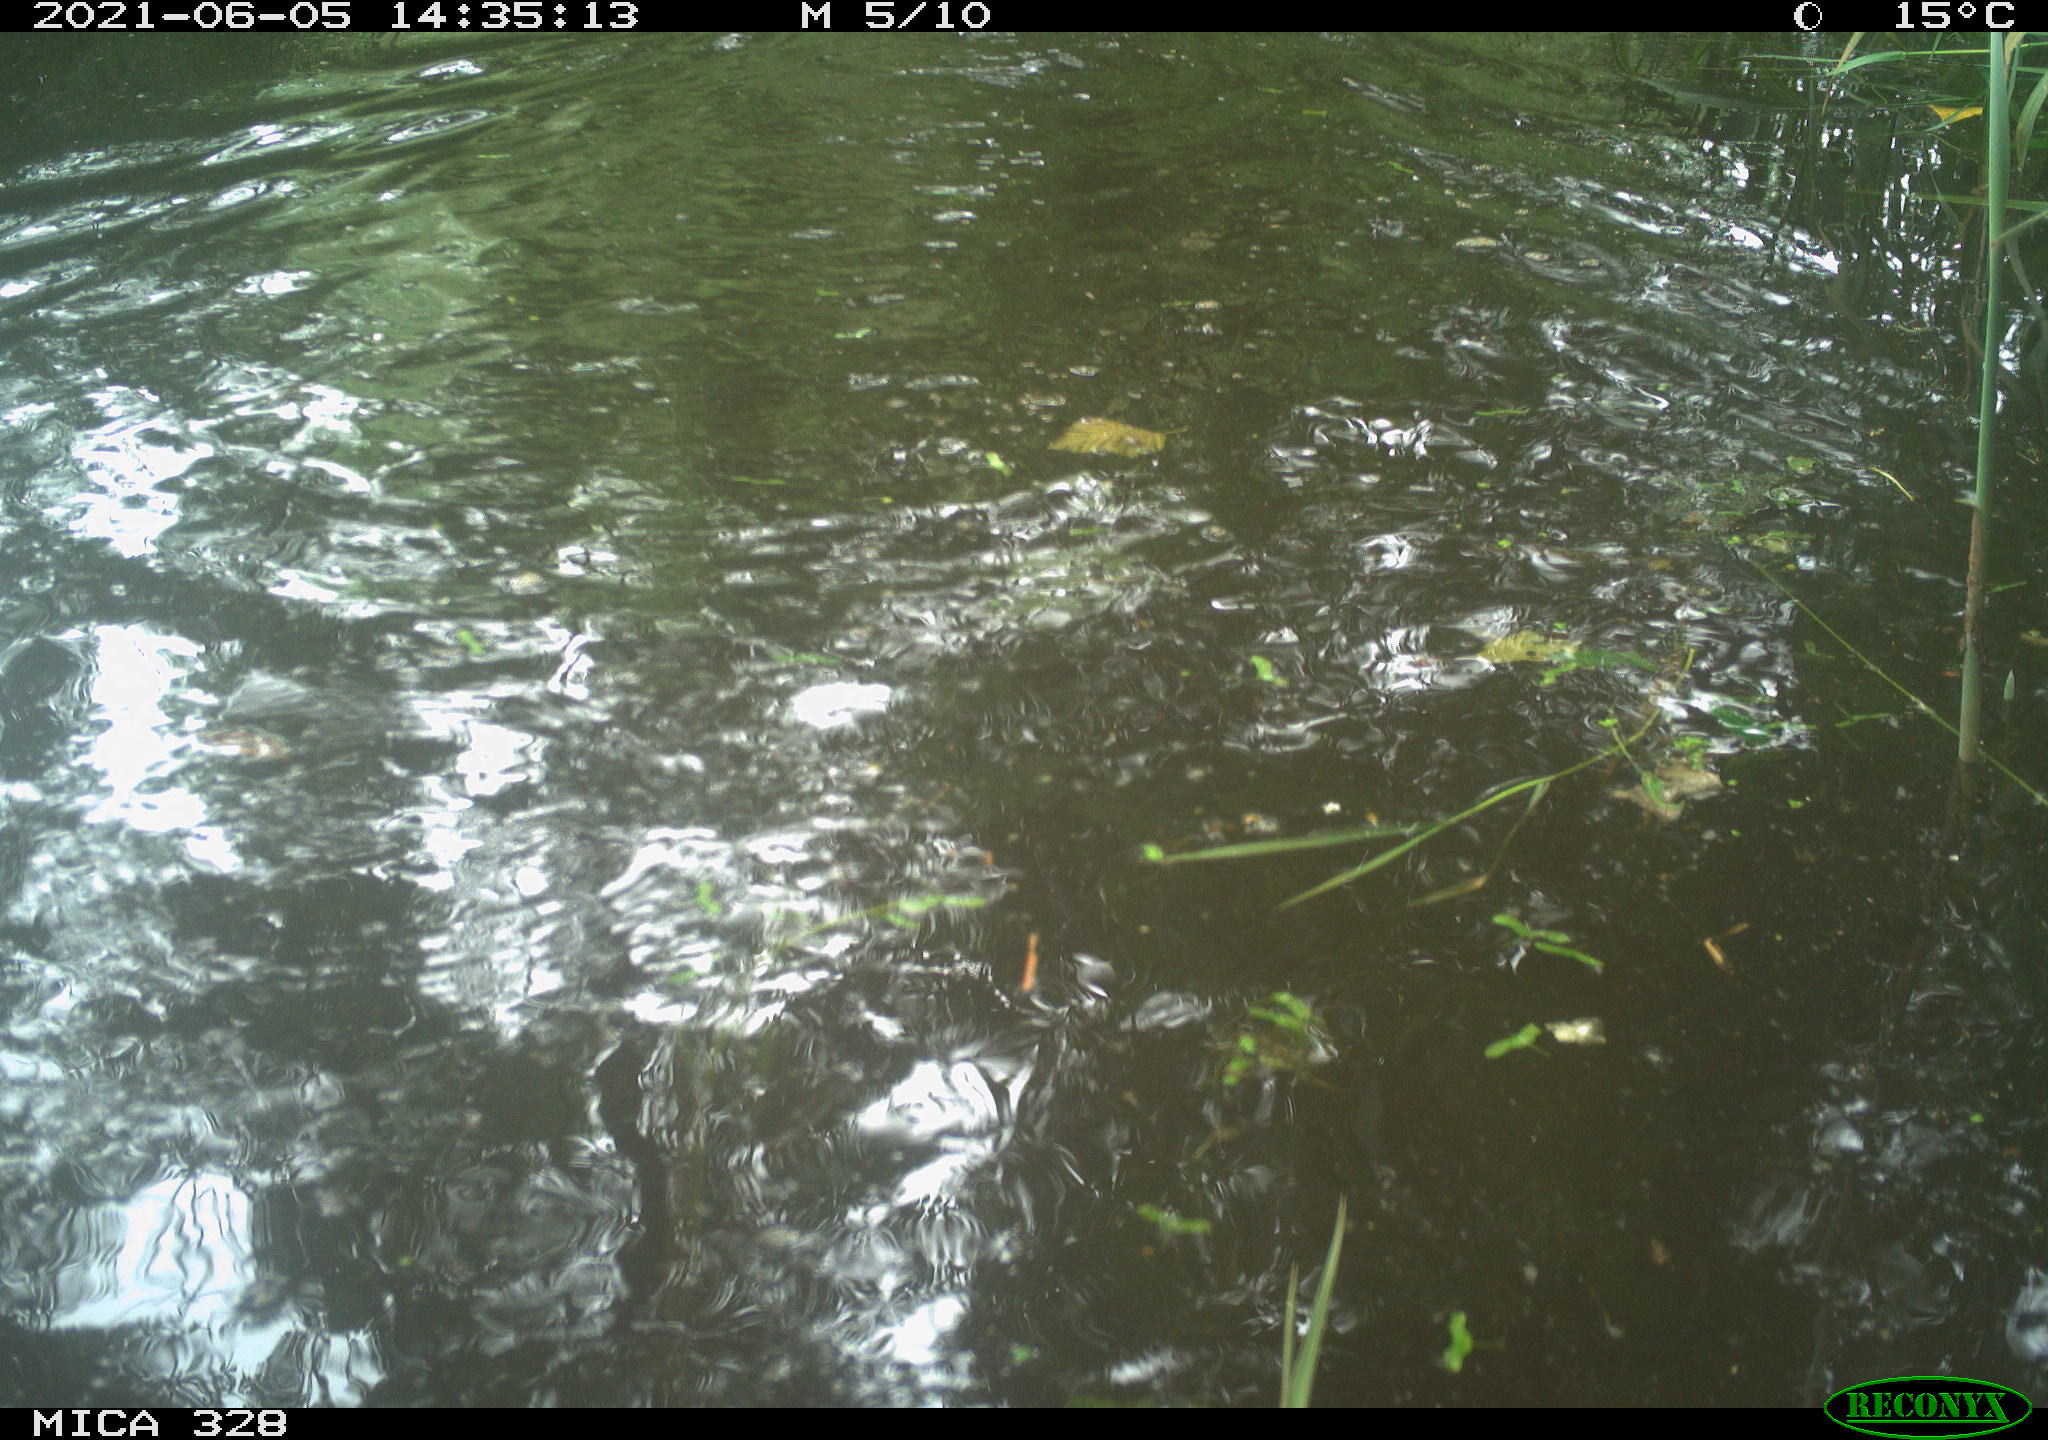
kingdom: Animalia
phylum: Chordata
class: Mammalia
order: Rodentia
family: Cricetidae
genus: Ondatra
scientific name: Ondatra zibethicus
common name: Muskrat
